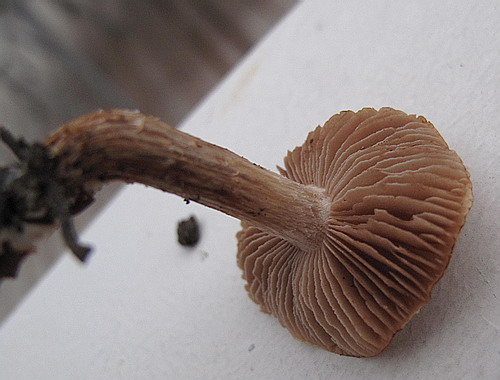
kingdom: Fungi
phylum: Basidiomycota
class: Agaricomycetes
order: Agaricales
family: Hymenogastraceae
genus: Hebeloma
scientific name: Hebeloma sacchariolens
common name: sødtduftende tåreblad
